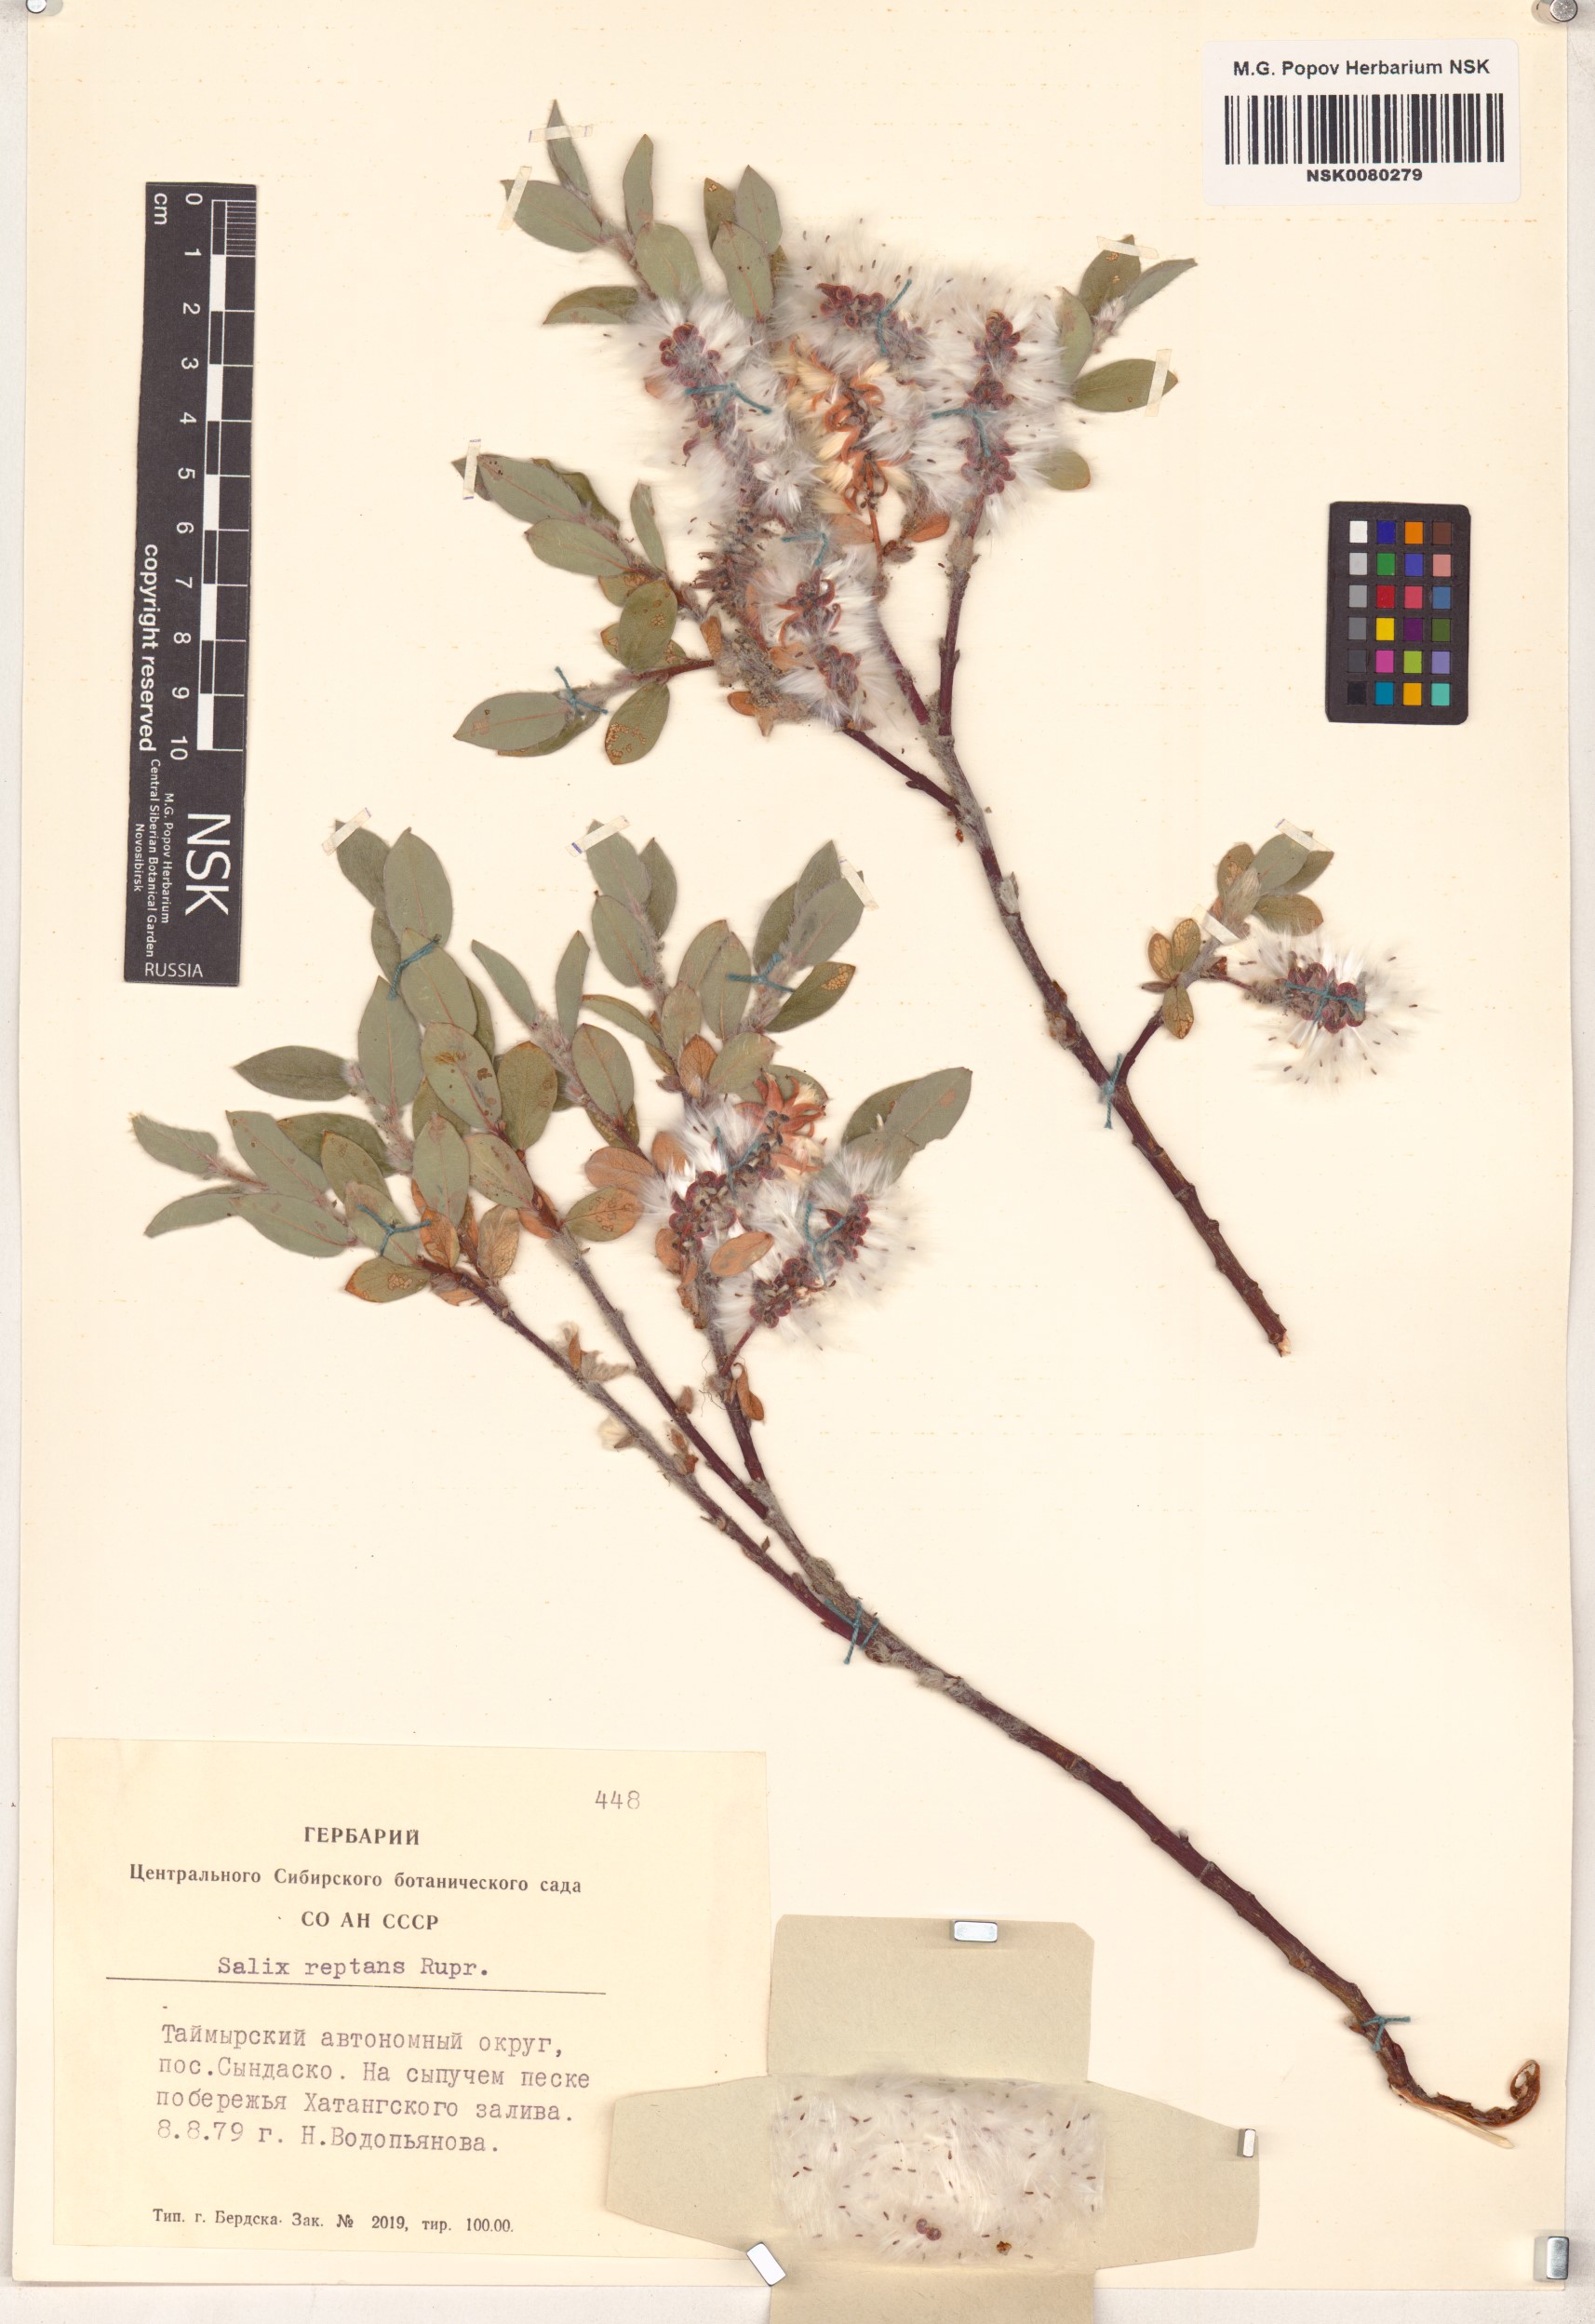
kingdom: Plantae
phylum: Tracheophyta
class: Magnoliopsida
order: Malpighiales
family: Salicaceae
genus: Salix
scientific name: Salix reptans
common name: Arctic creeping willow
